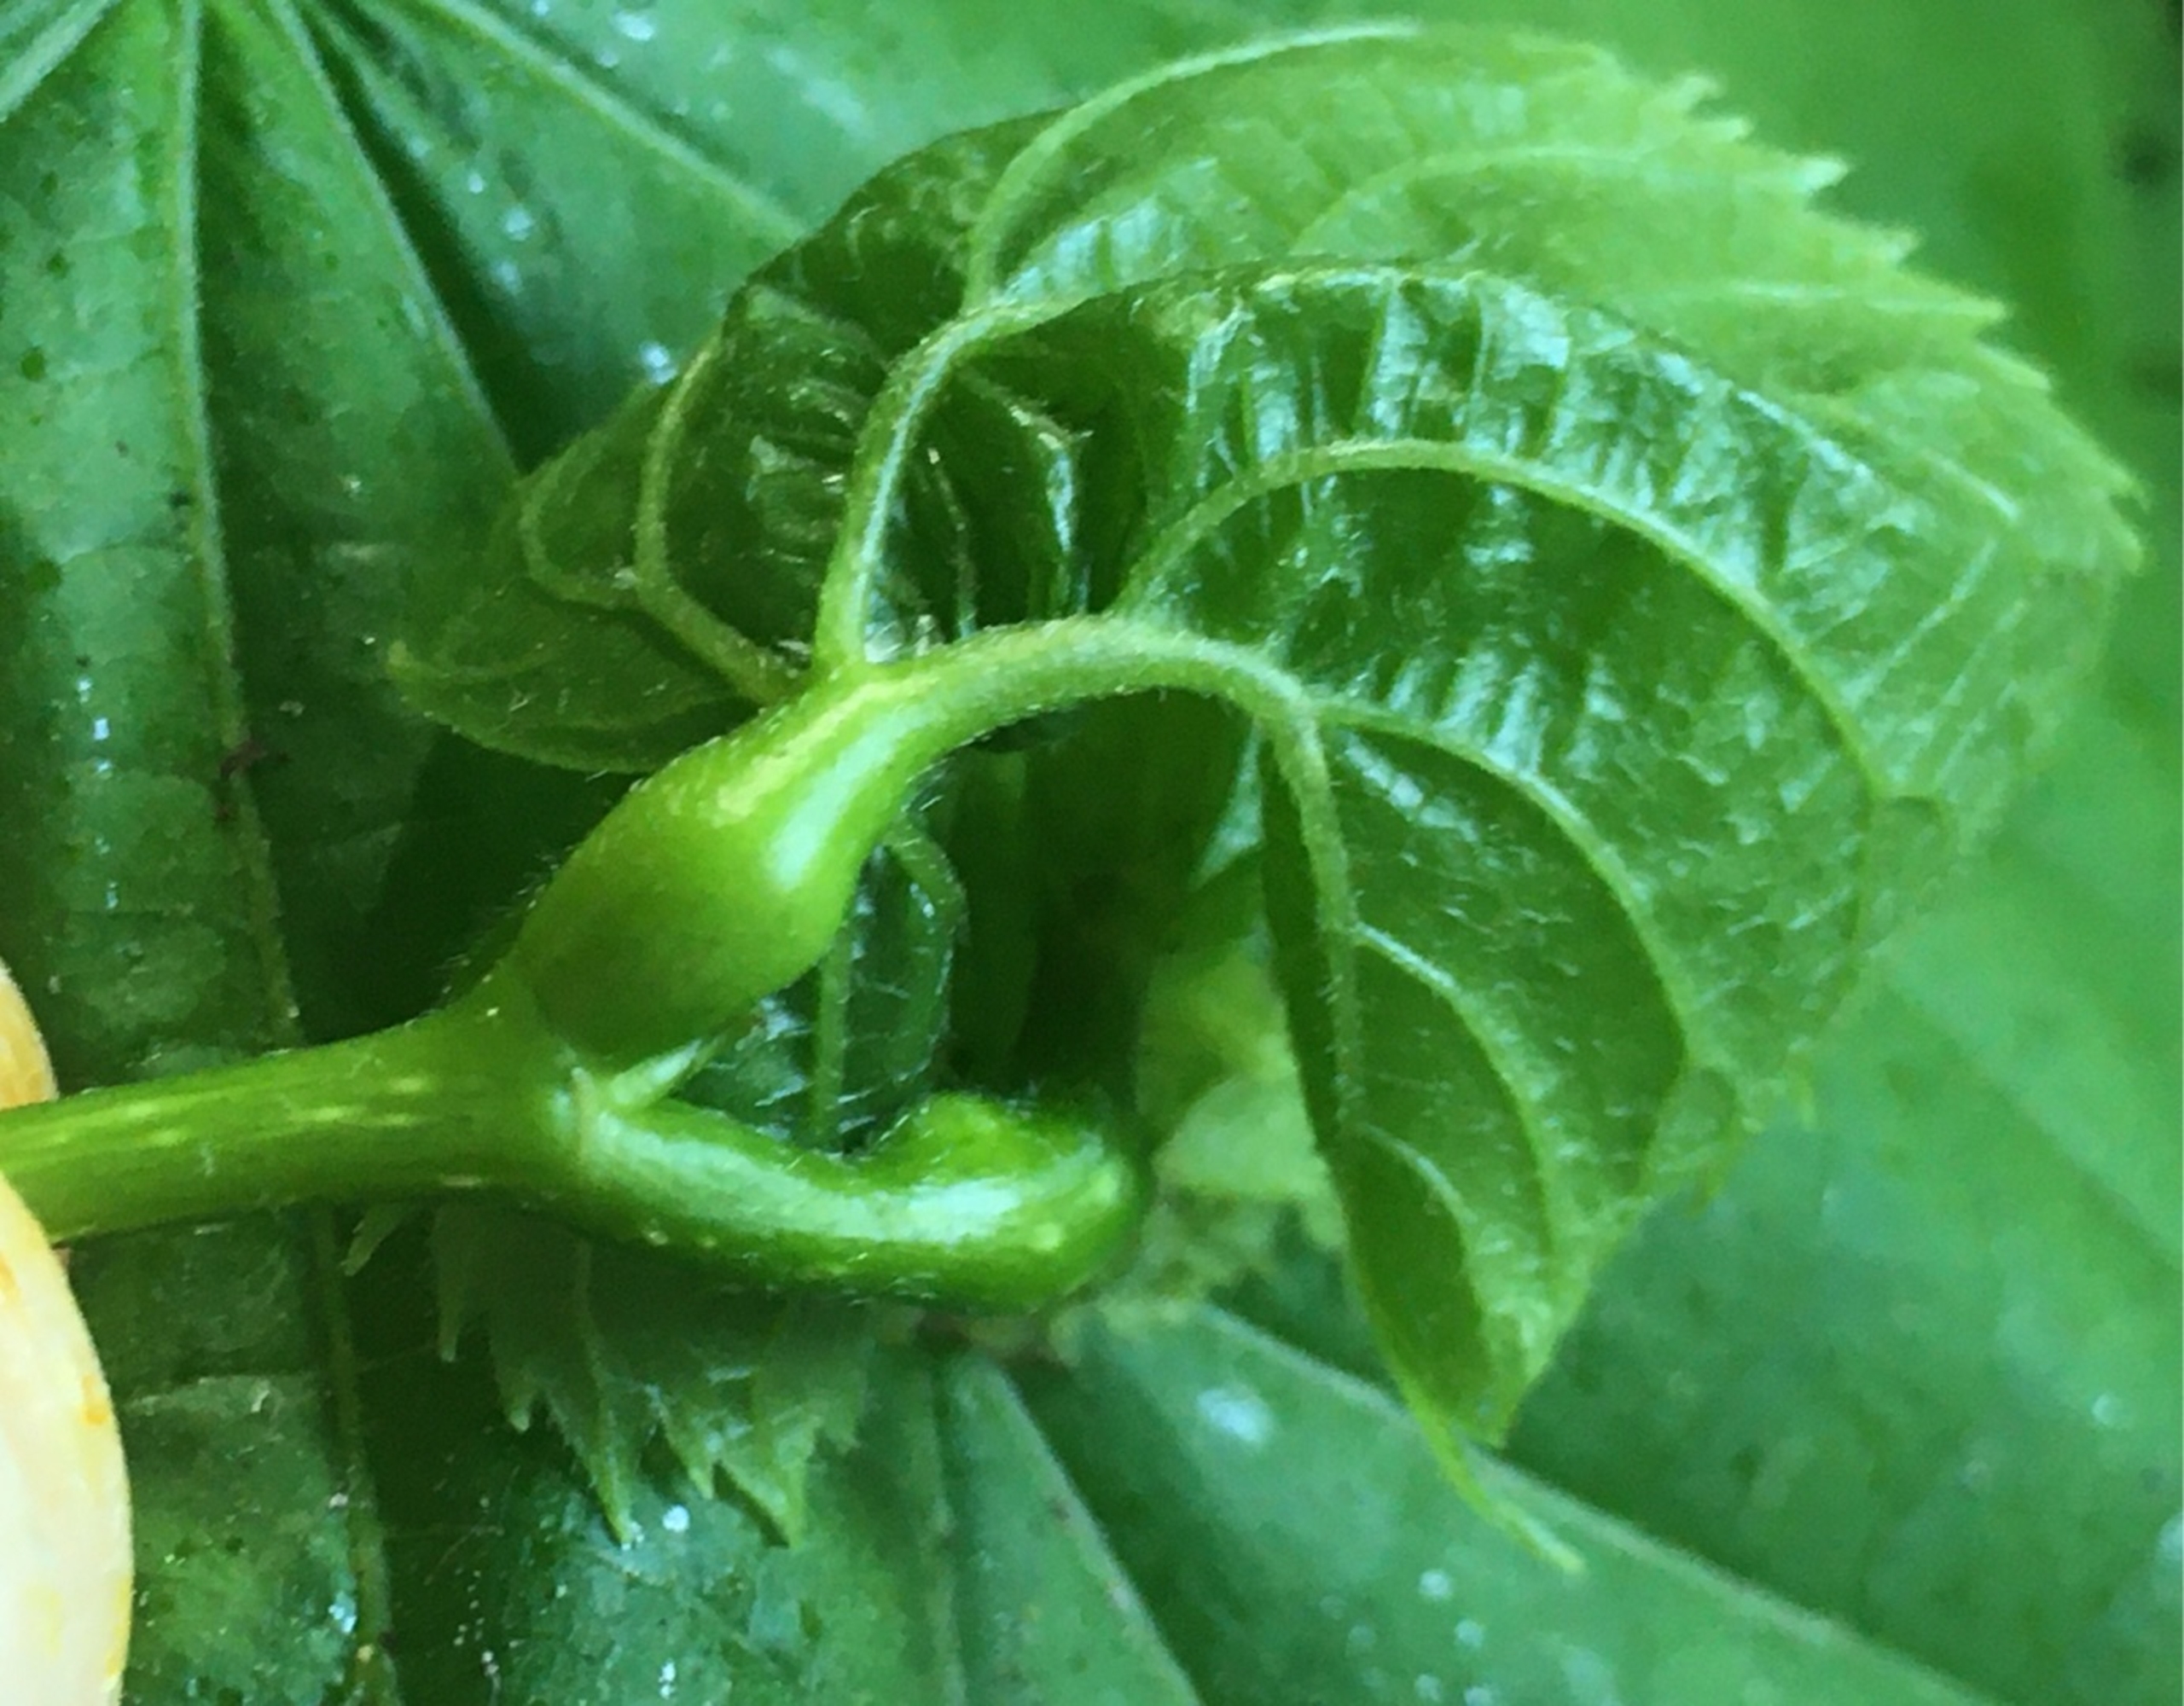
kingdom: Animalia
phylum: Arthropoda
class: Insecta
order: Diptera
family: Cecidomyiidae
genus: Contarinia
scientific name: Contarinia tiliarum
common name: Springende lindegalmyg
